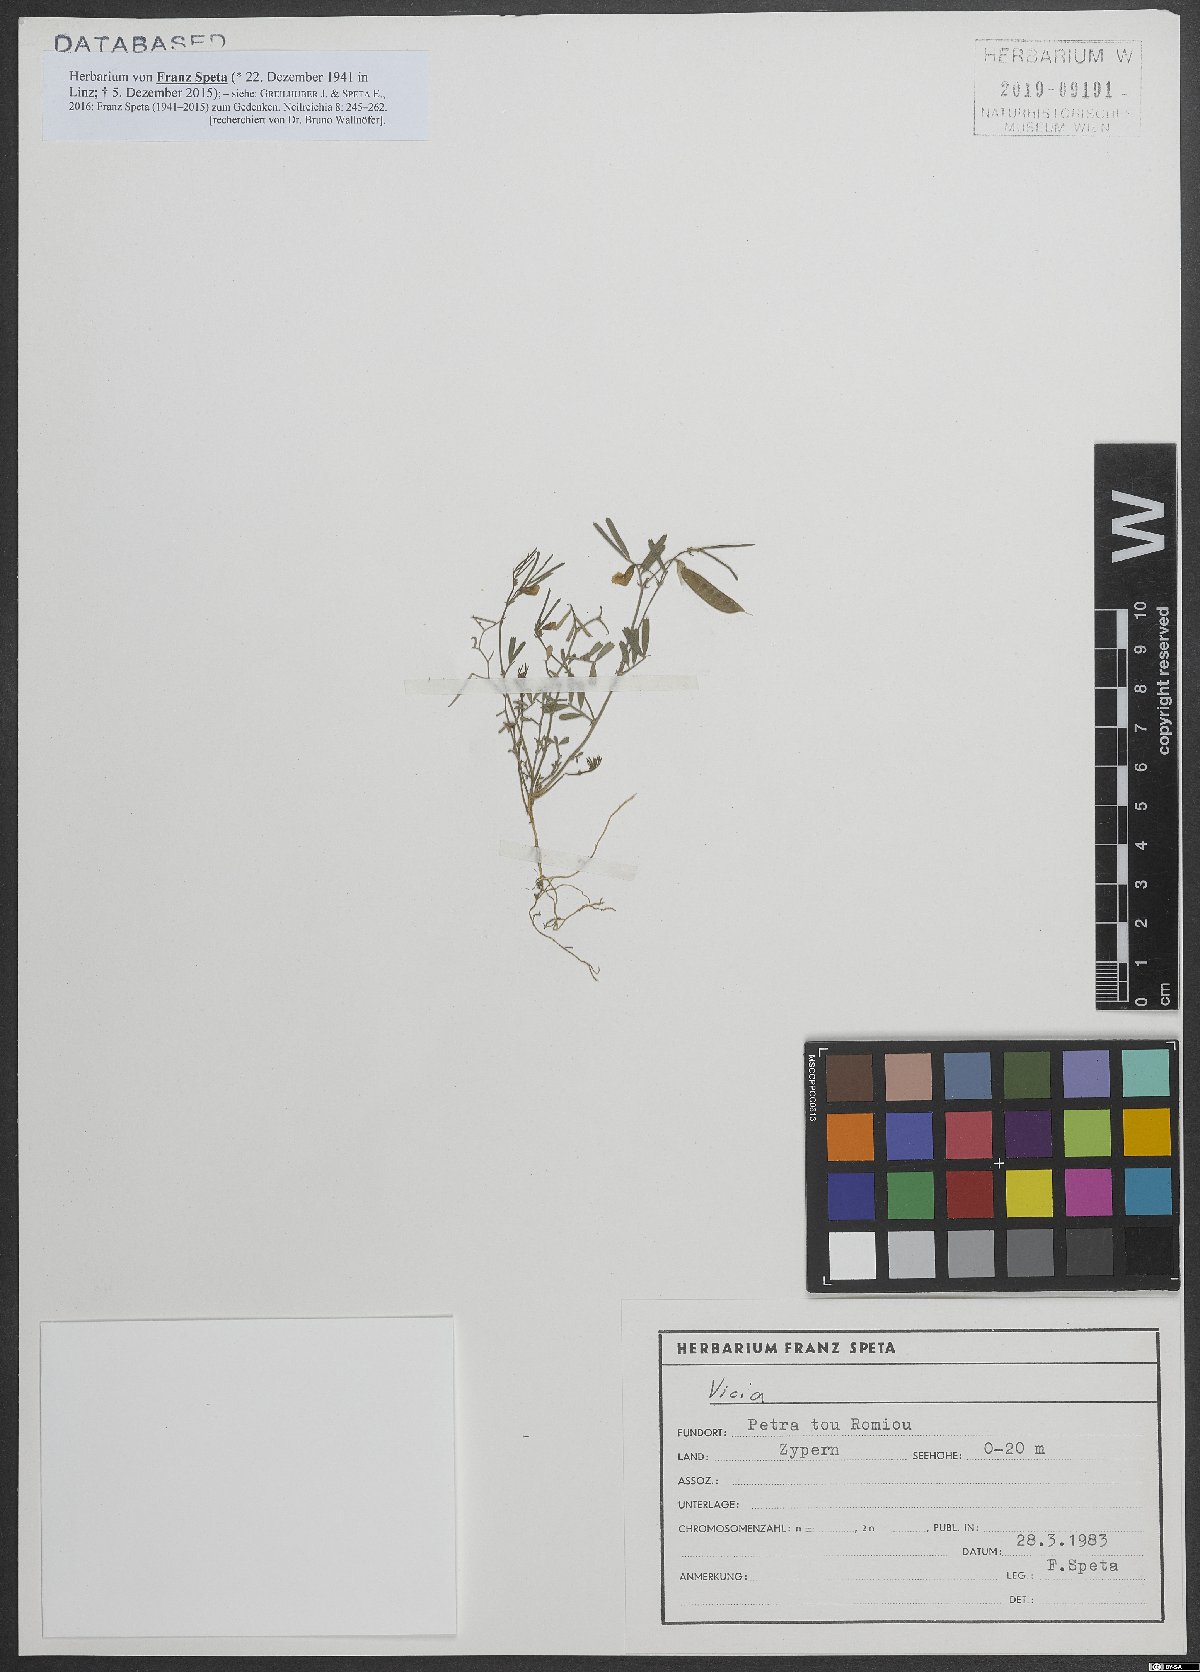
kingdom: Plantae
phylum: Tracheophyta
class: Magnoliopsida
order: Fabales
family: Fabaceae
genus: Vicia
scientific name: Vicia
